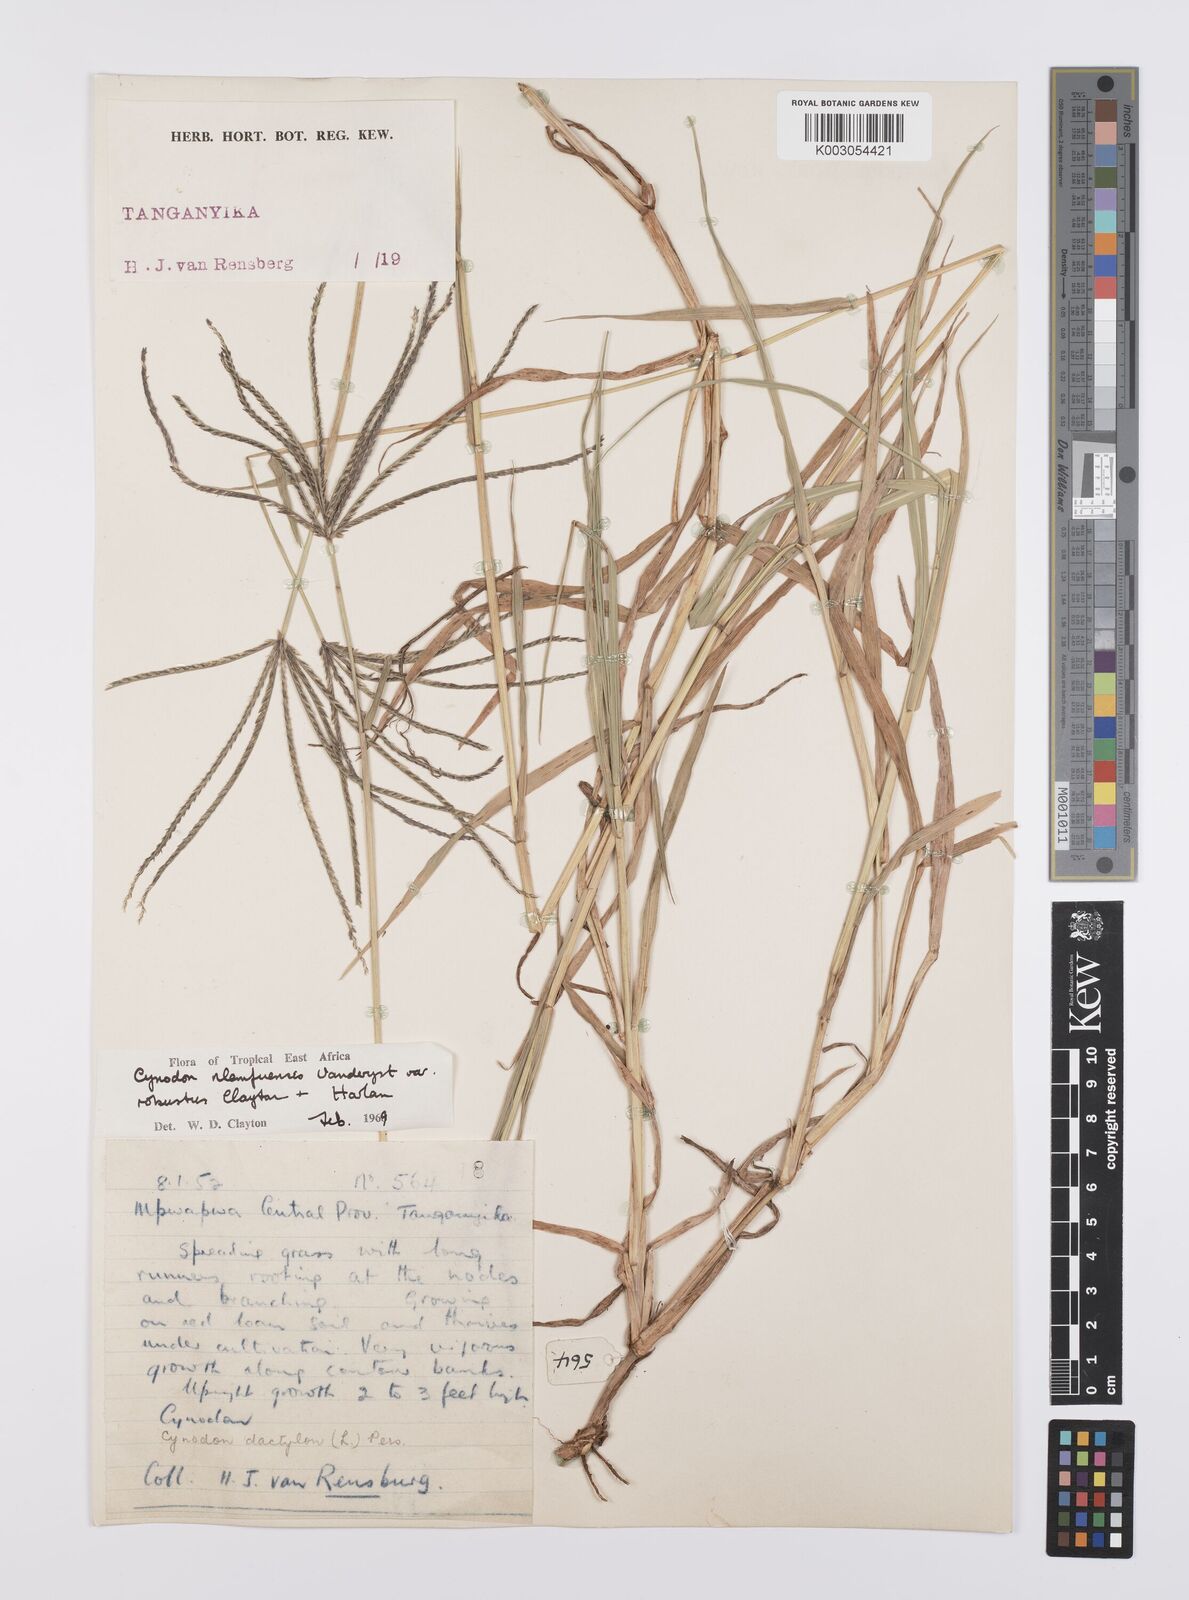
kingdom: Plantae
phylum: Tracheophyta
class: Liliopsida
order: Poales
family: Poaceae
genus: Cynodon
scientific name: Cynodon nlemfuensis
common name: African bermudagrass
